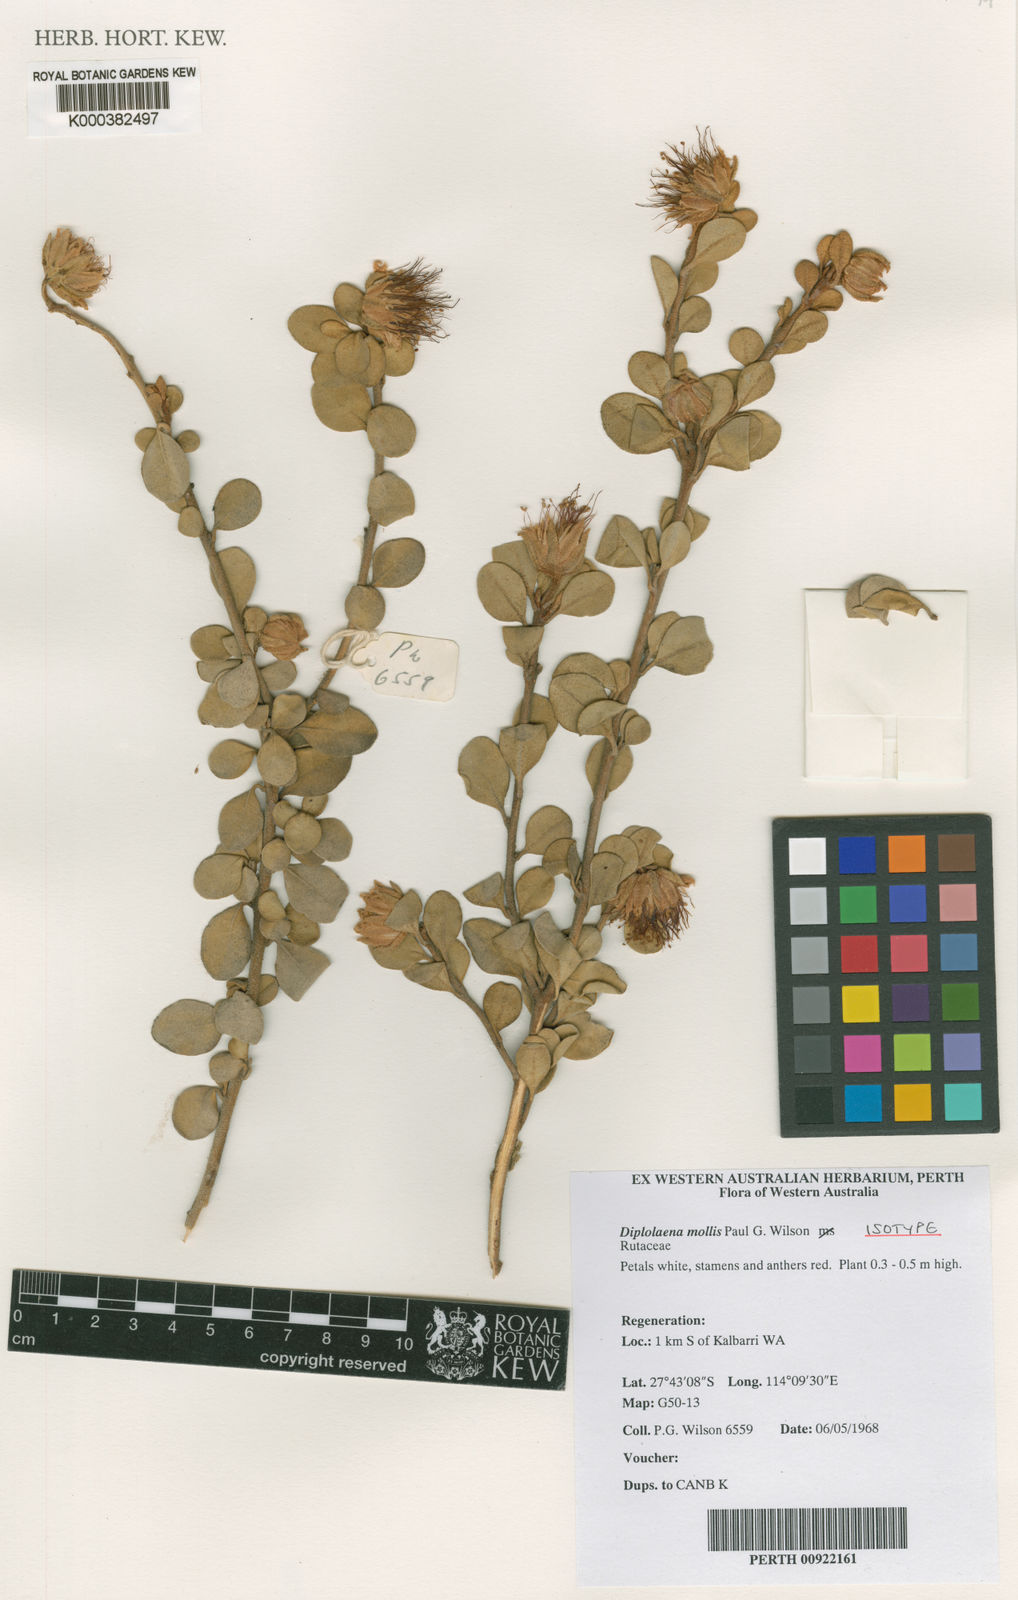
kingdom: Plantae
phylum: Tracheophyta
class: Magnoliopsida
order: Sapindales
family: Rutaceae
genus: Diplolaena
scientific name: Diplolaena mollis
